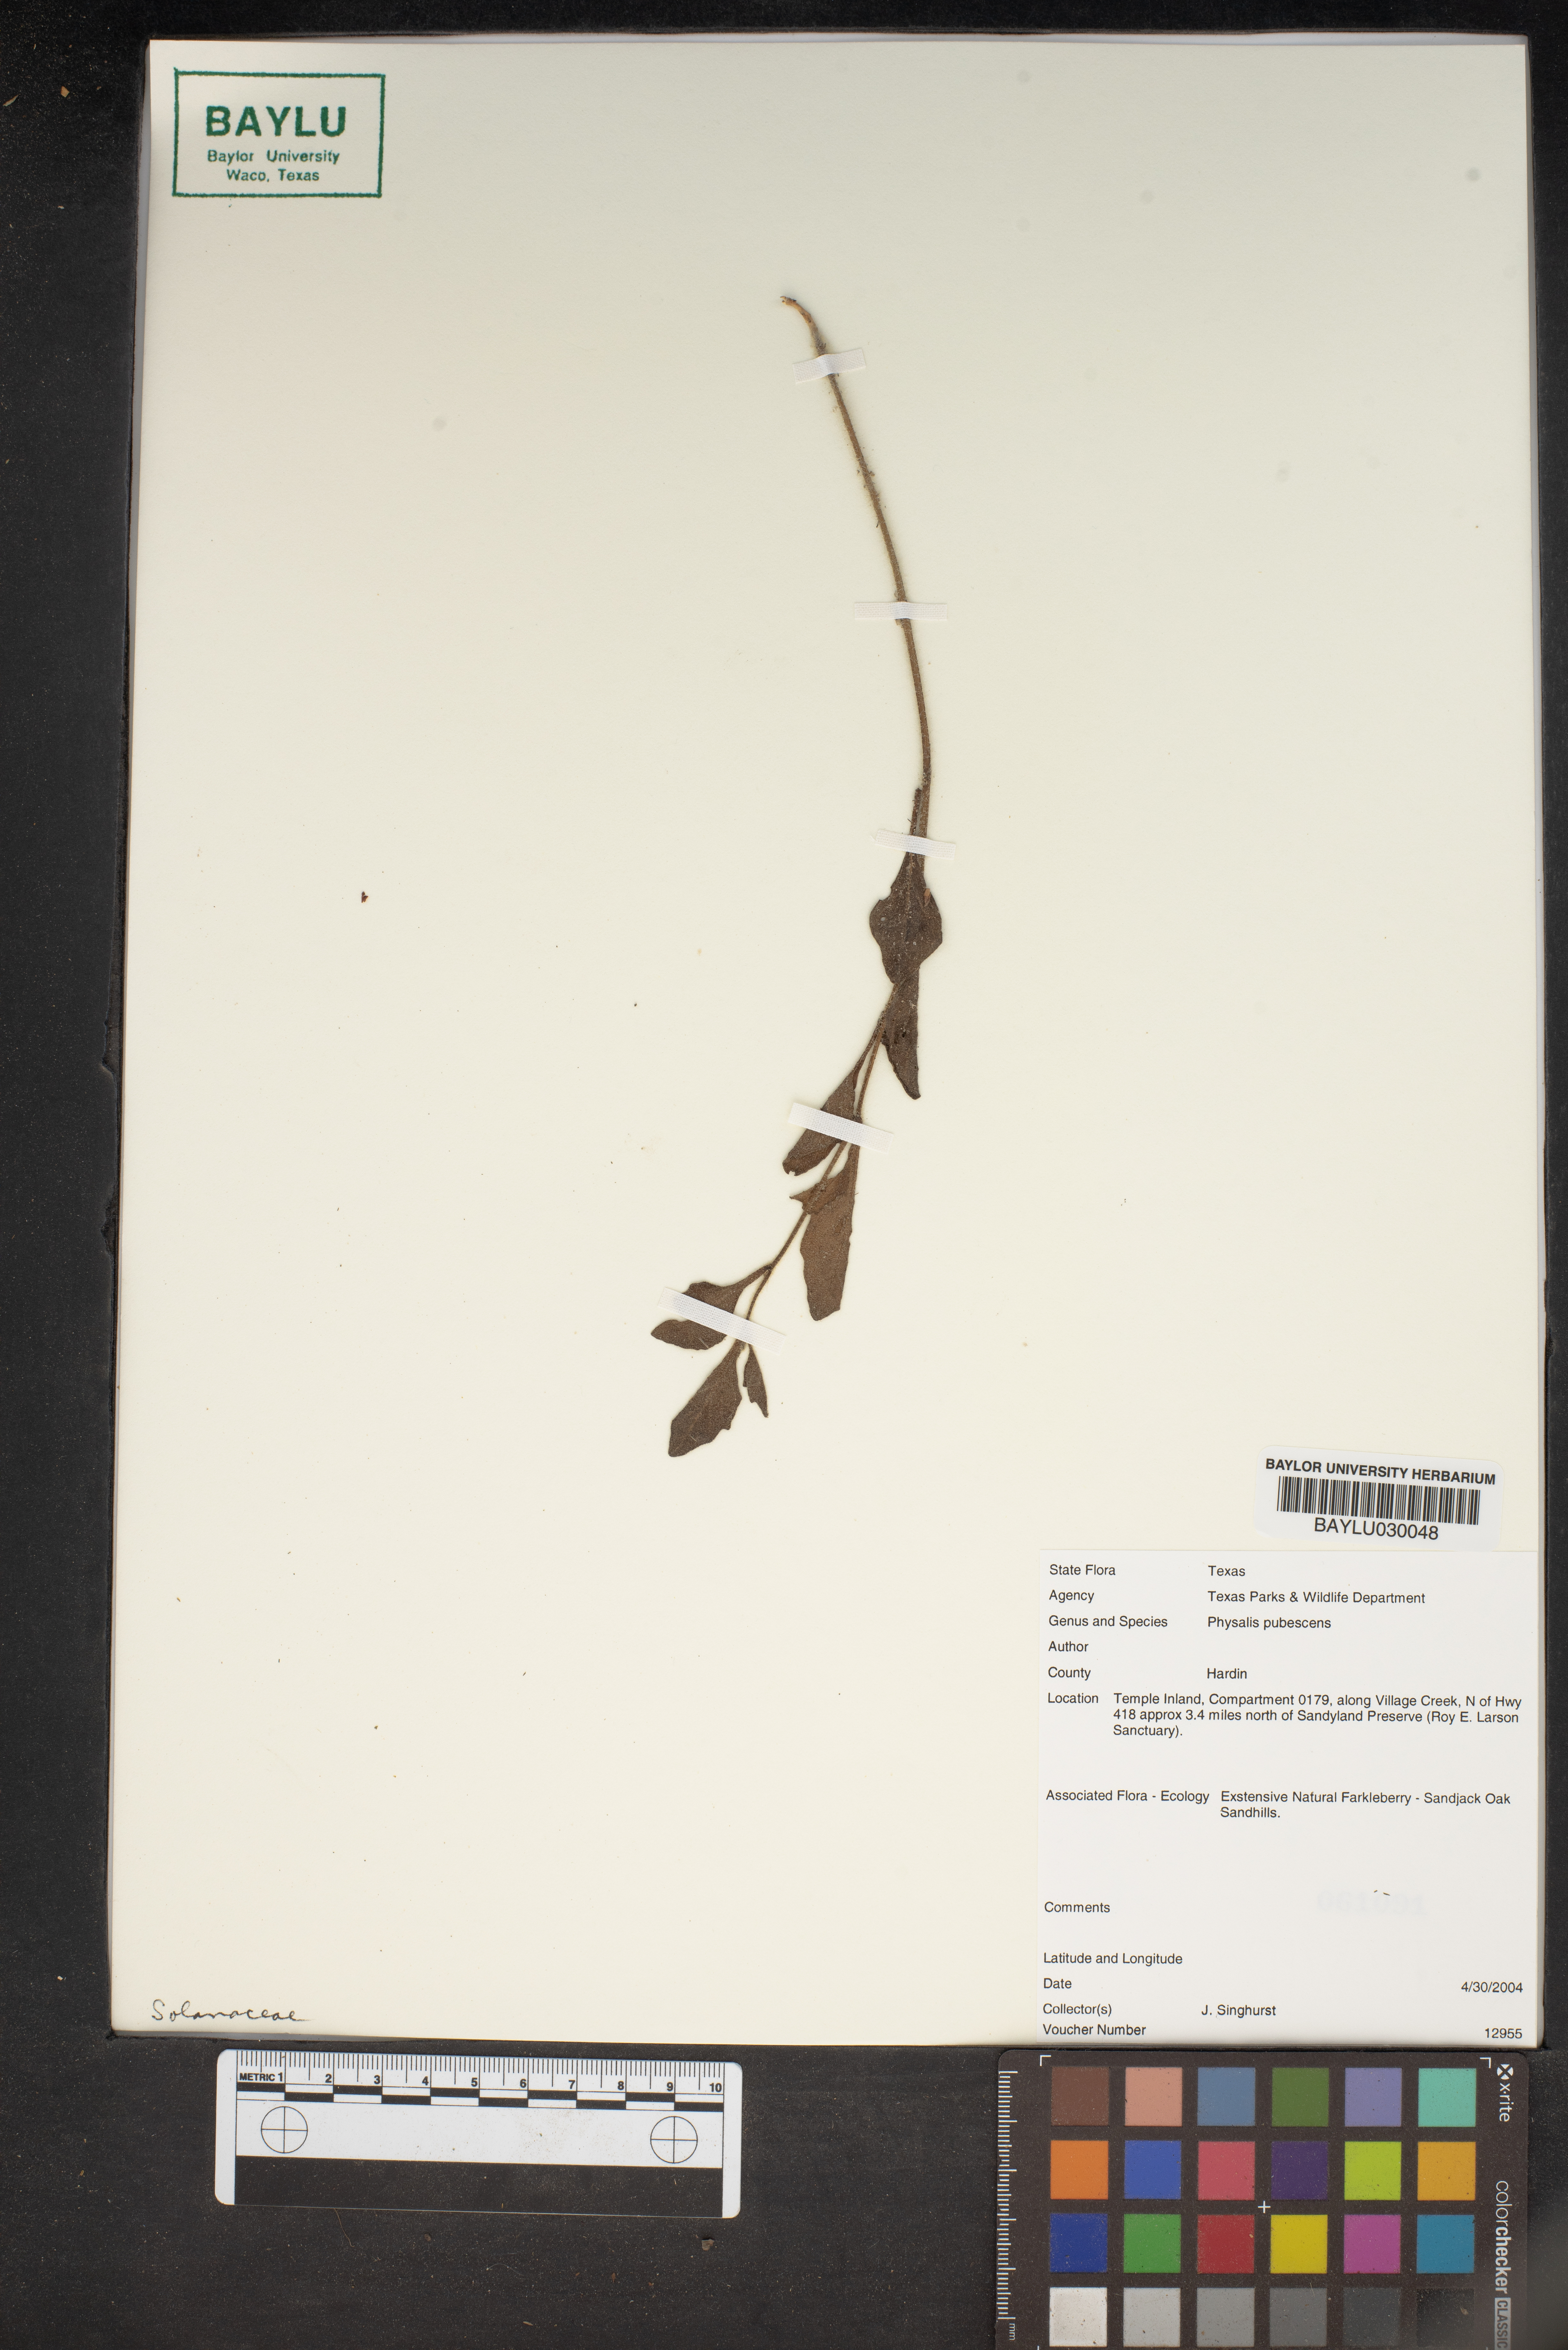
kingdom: Plantae
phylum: Tracheophyta
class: Magnoliopsida
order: Solanales
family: Solanaceae
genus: Physalis
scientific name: Physalis pubescens
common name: Downy ground-cherry
